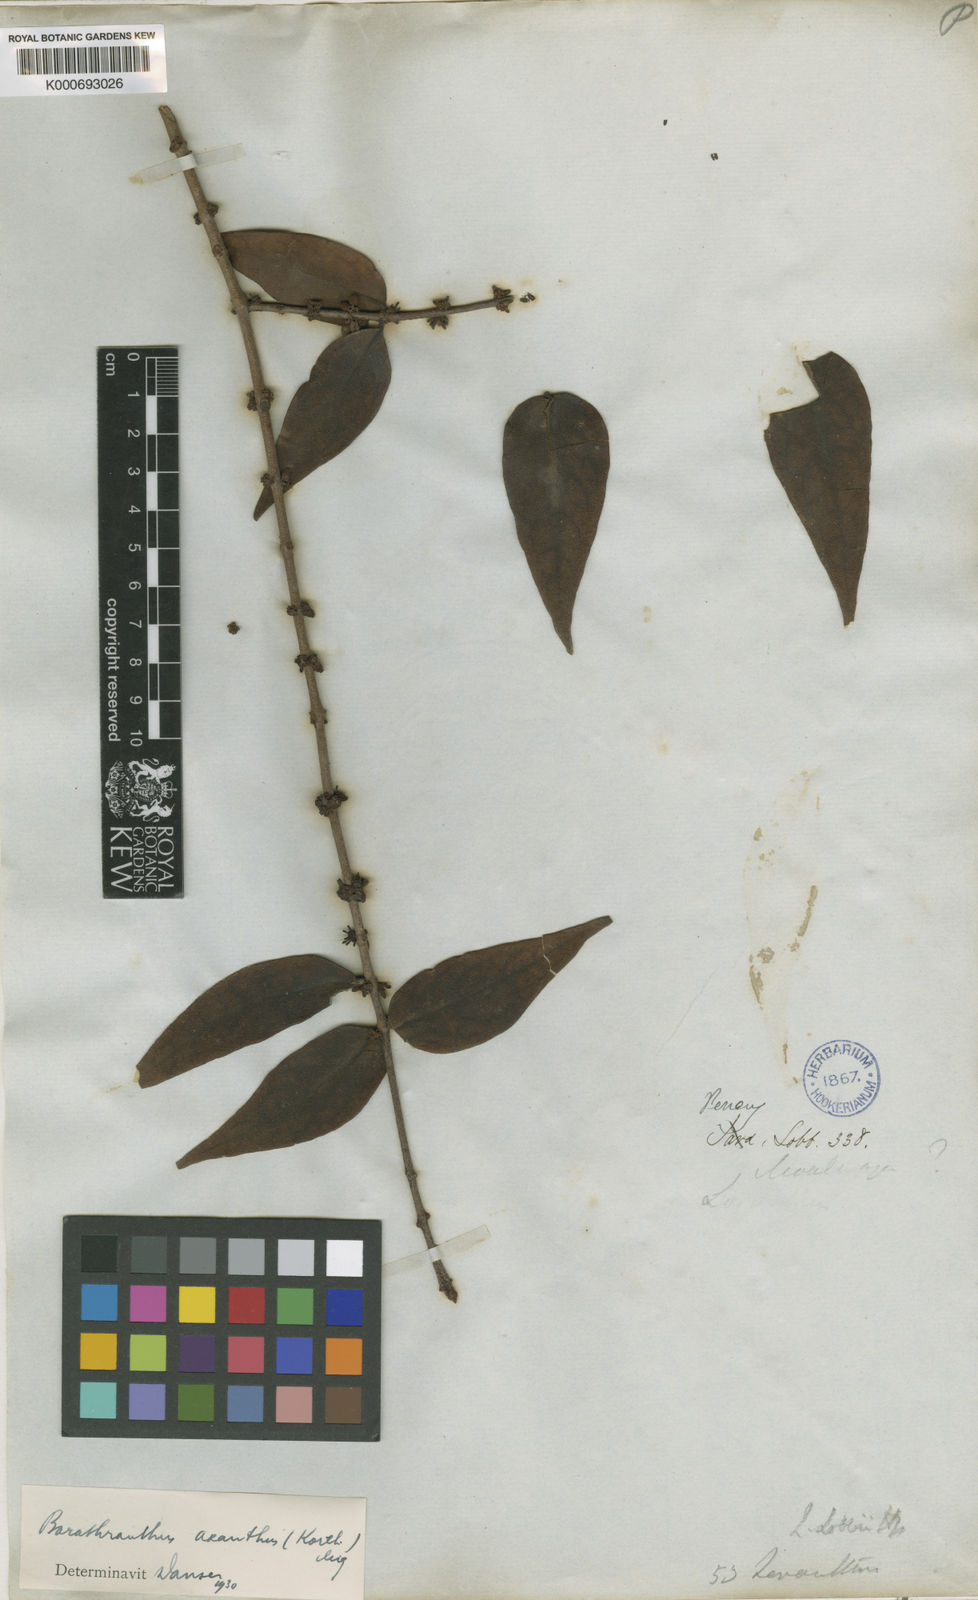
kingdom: Plantae
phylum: Tracheophyta
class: Magnoliopsida
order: Santalales
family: Loranthaceae
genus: Barathranthus
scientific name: Barathranthus axanthus
